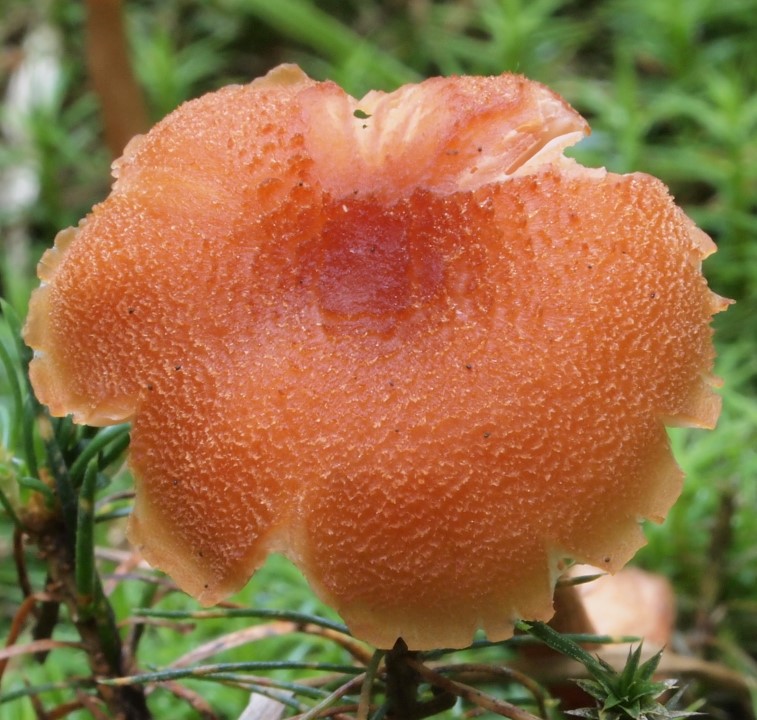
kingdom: Fungi
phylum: Basidiomycota
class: Agaricomycetes
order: Agaricales
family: Hydnangiaceae
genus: Laccaria
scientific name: Laccaria proxima
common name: stor ametysthat
